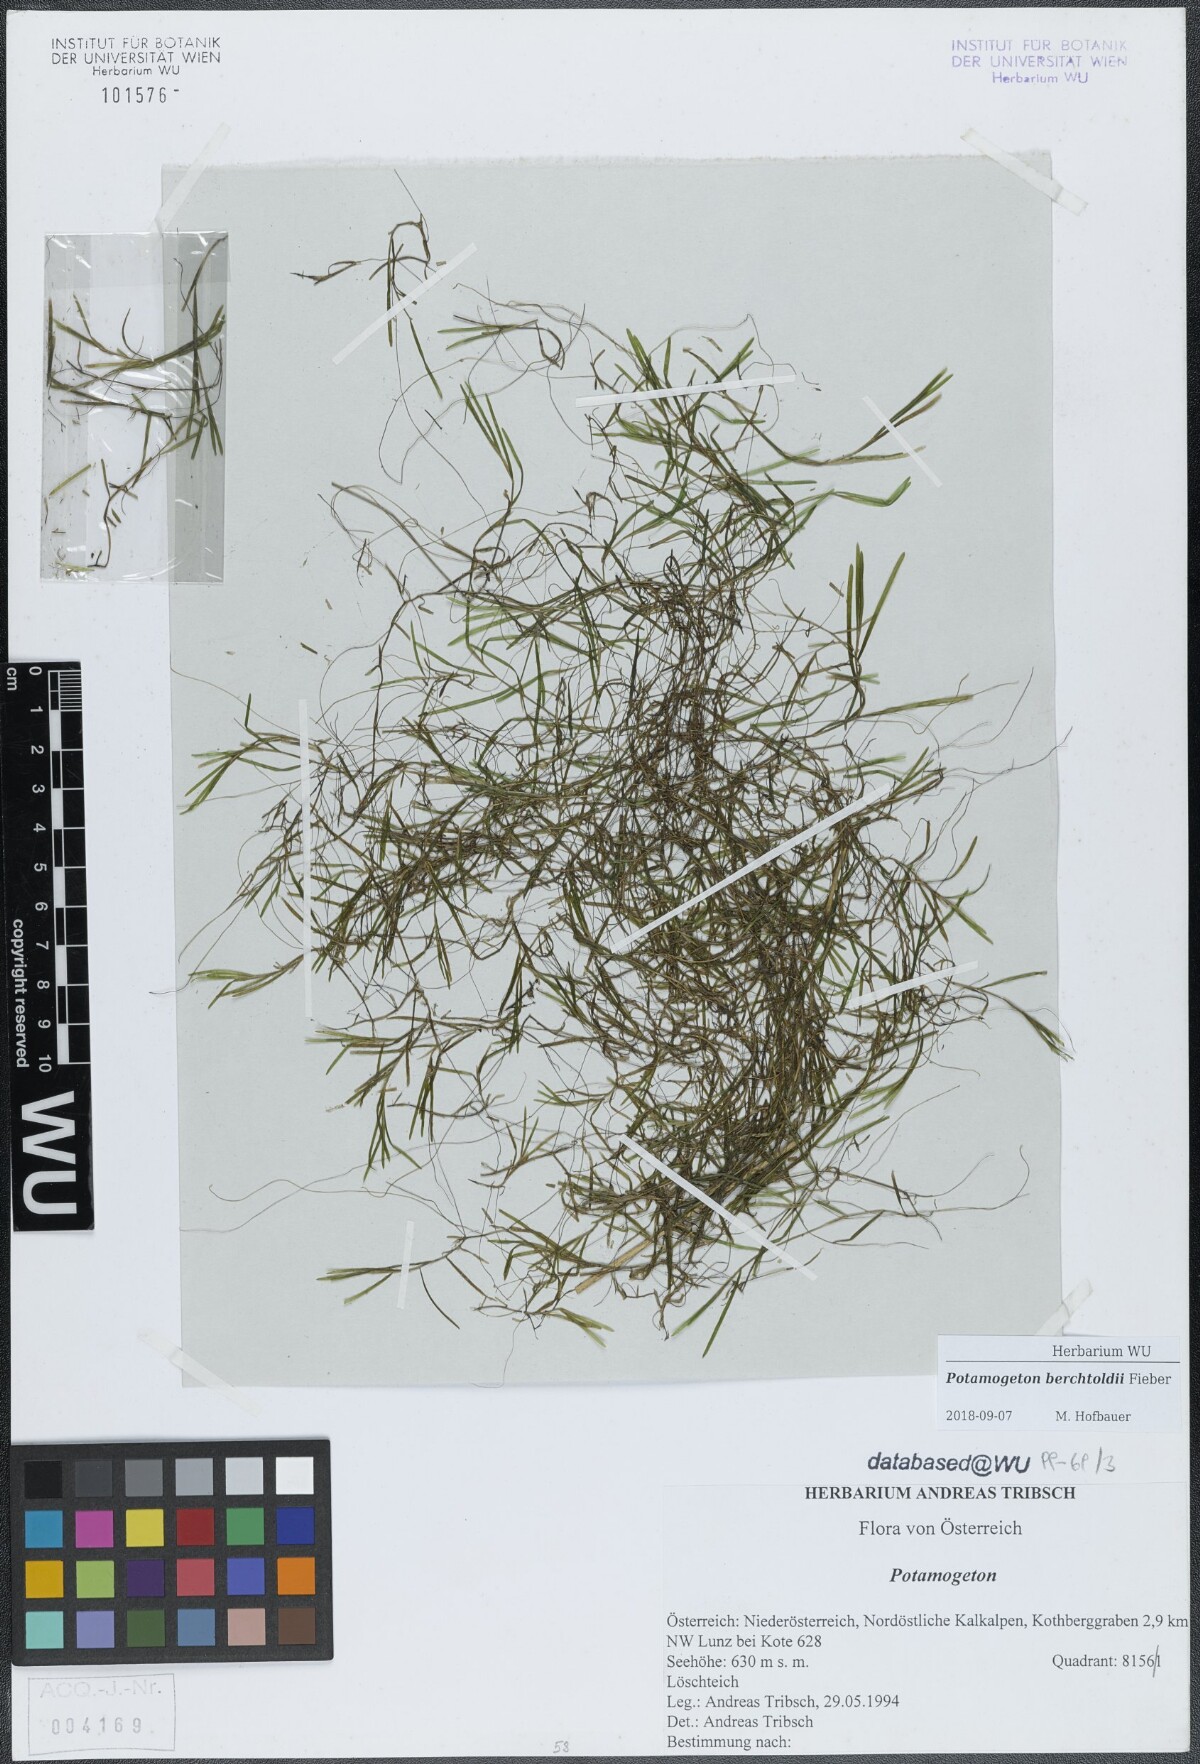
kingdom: Plantae
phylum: Tracheophyta
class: Liliopsida
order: Alismatales
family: Potamogetonaceae
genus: Potamogeton
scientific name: Potamogeton berchtoldii
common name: Small pondweed
